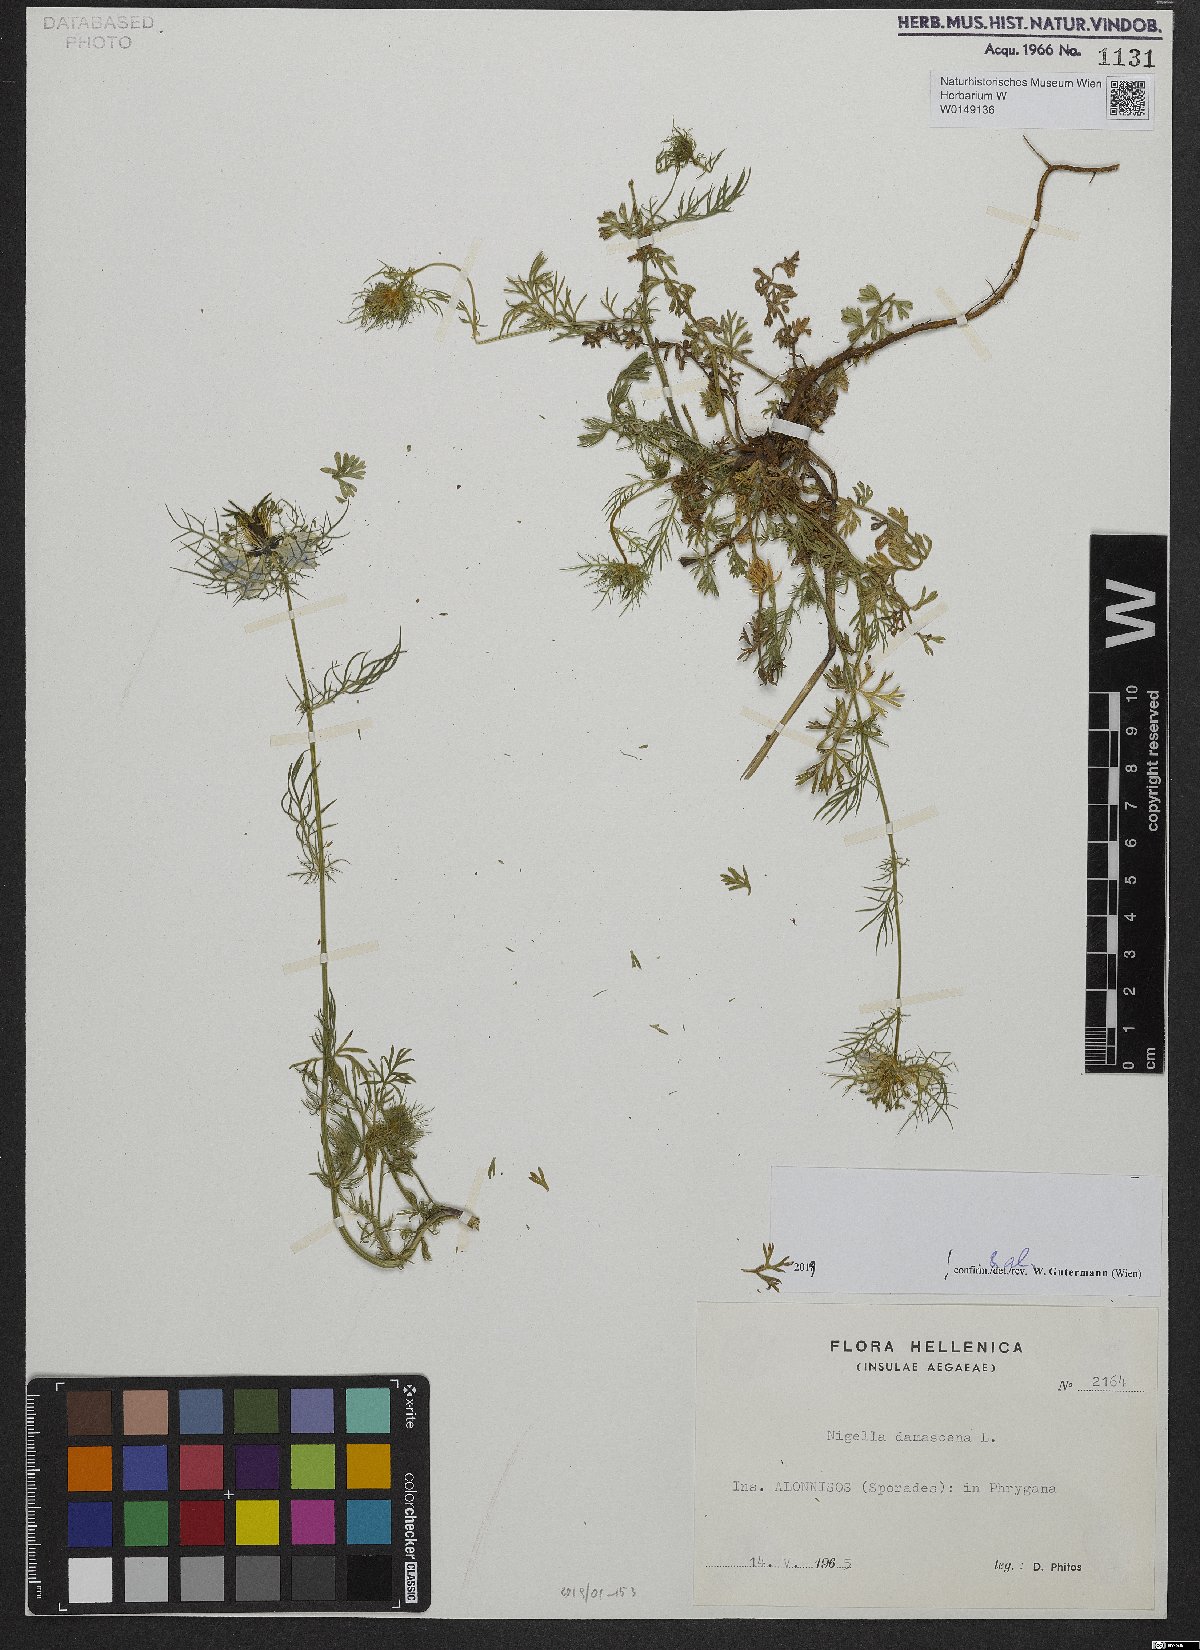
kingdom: Plantae
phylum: Tracheophyta
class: Magnoliopsida
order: Ranunculales
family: Ranunculaceae
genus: Nigella
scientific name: Nigella damascena
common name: Love-in-a-mist
